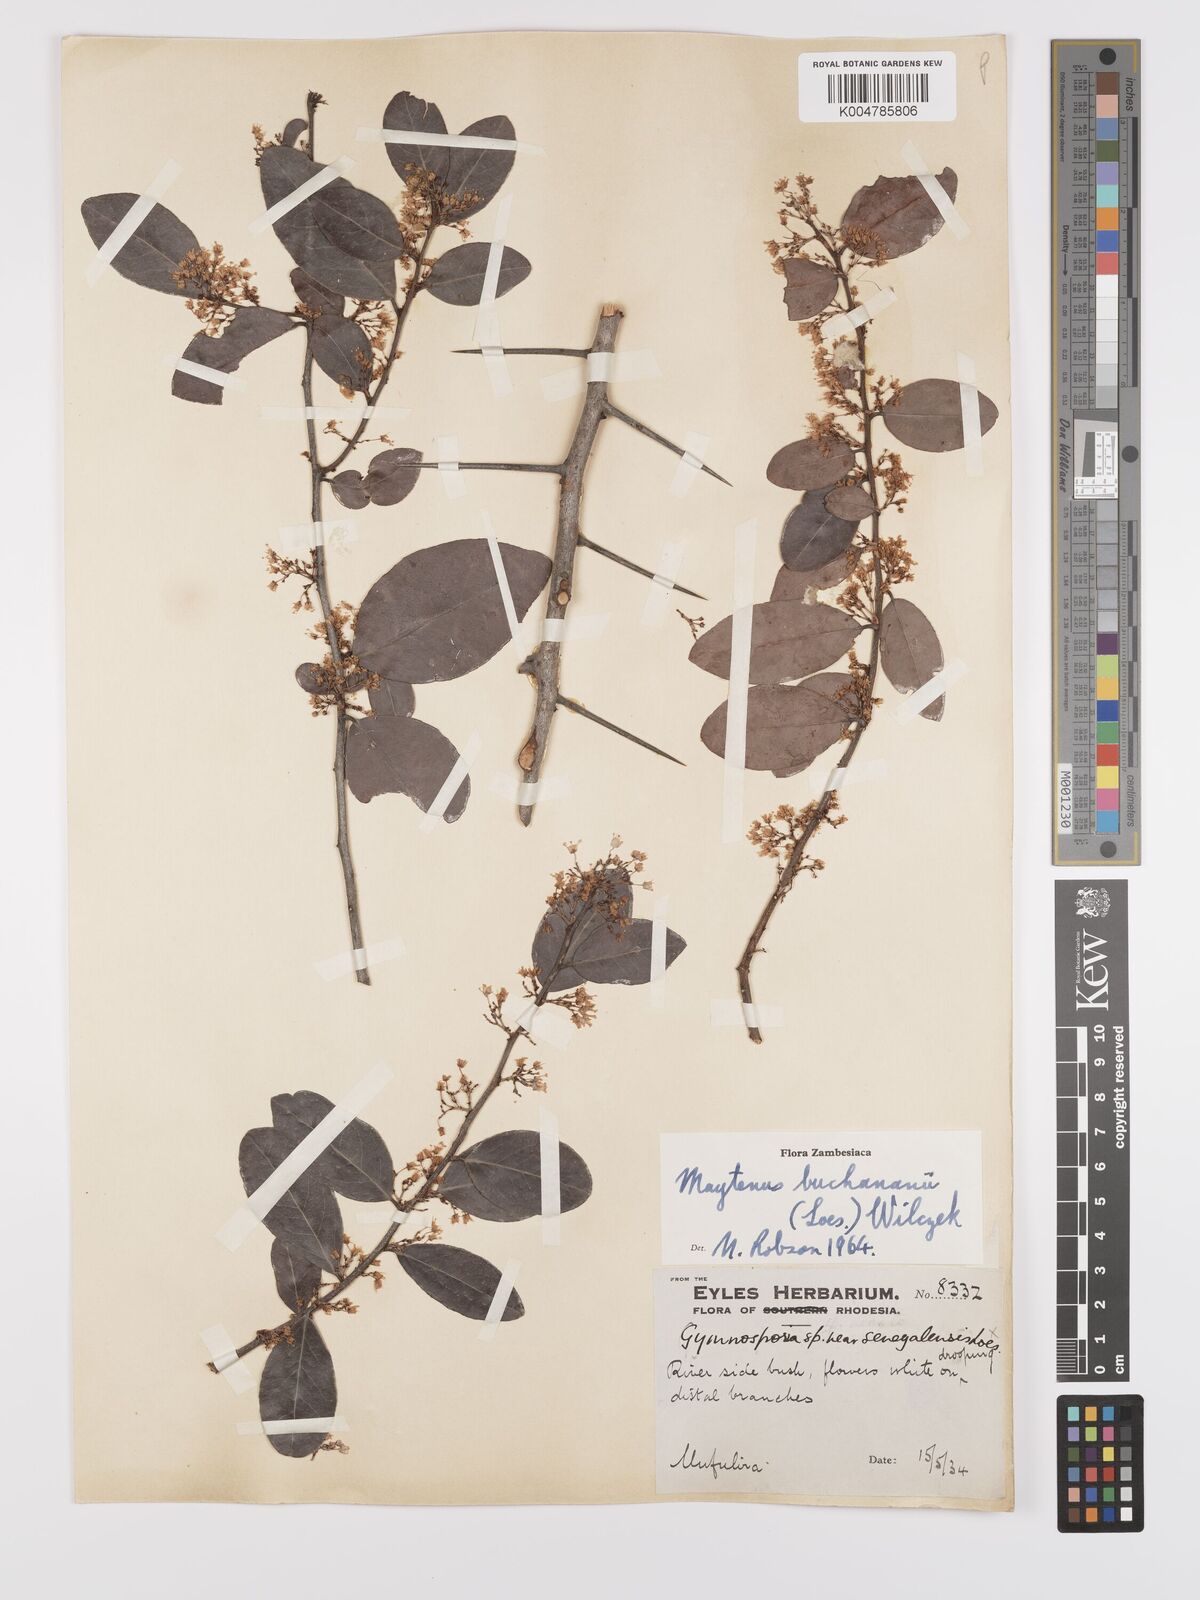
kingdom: Plantae
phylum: Tracheophyta
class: Magnoliopsida
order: Celastrales
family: Celastraceae
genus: Gymnosporia
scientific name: Gymnosporia buchananii
